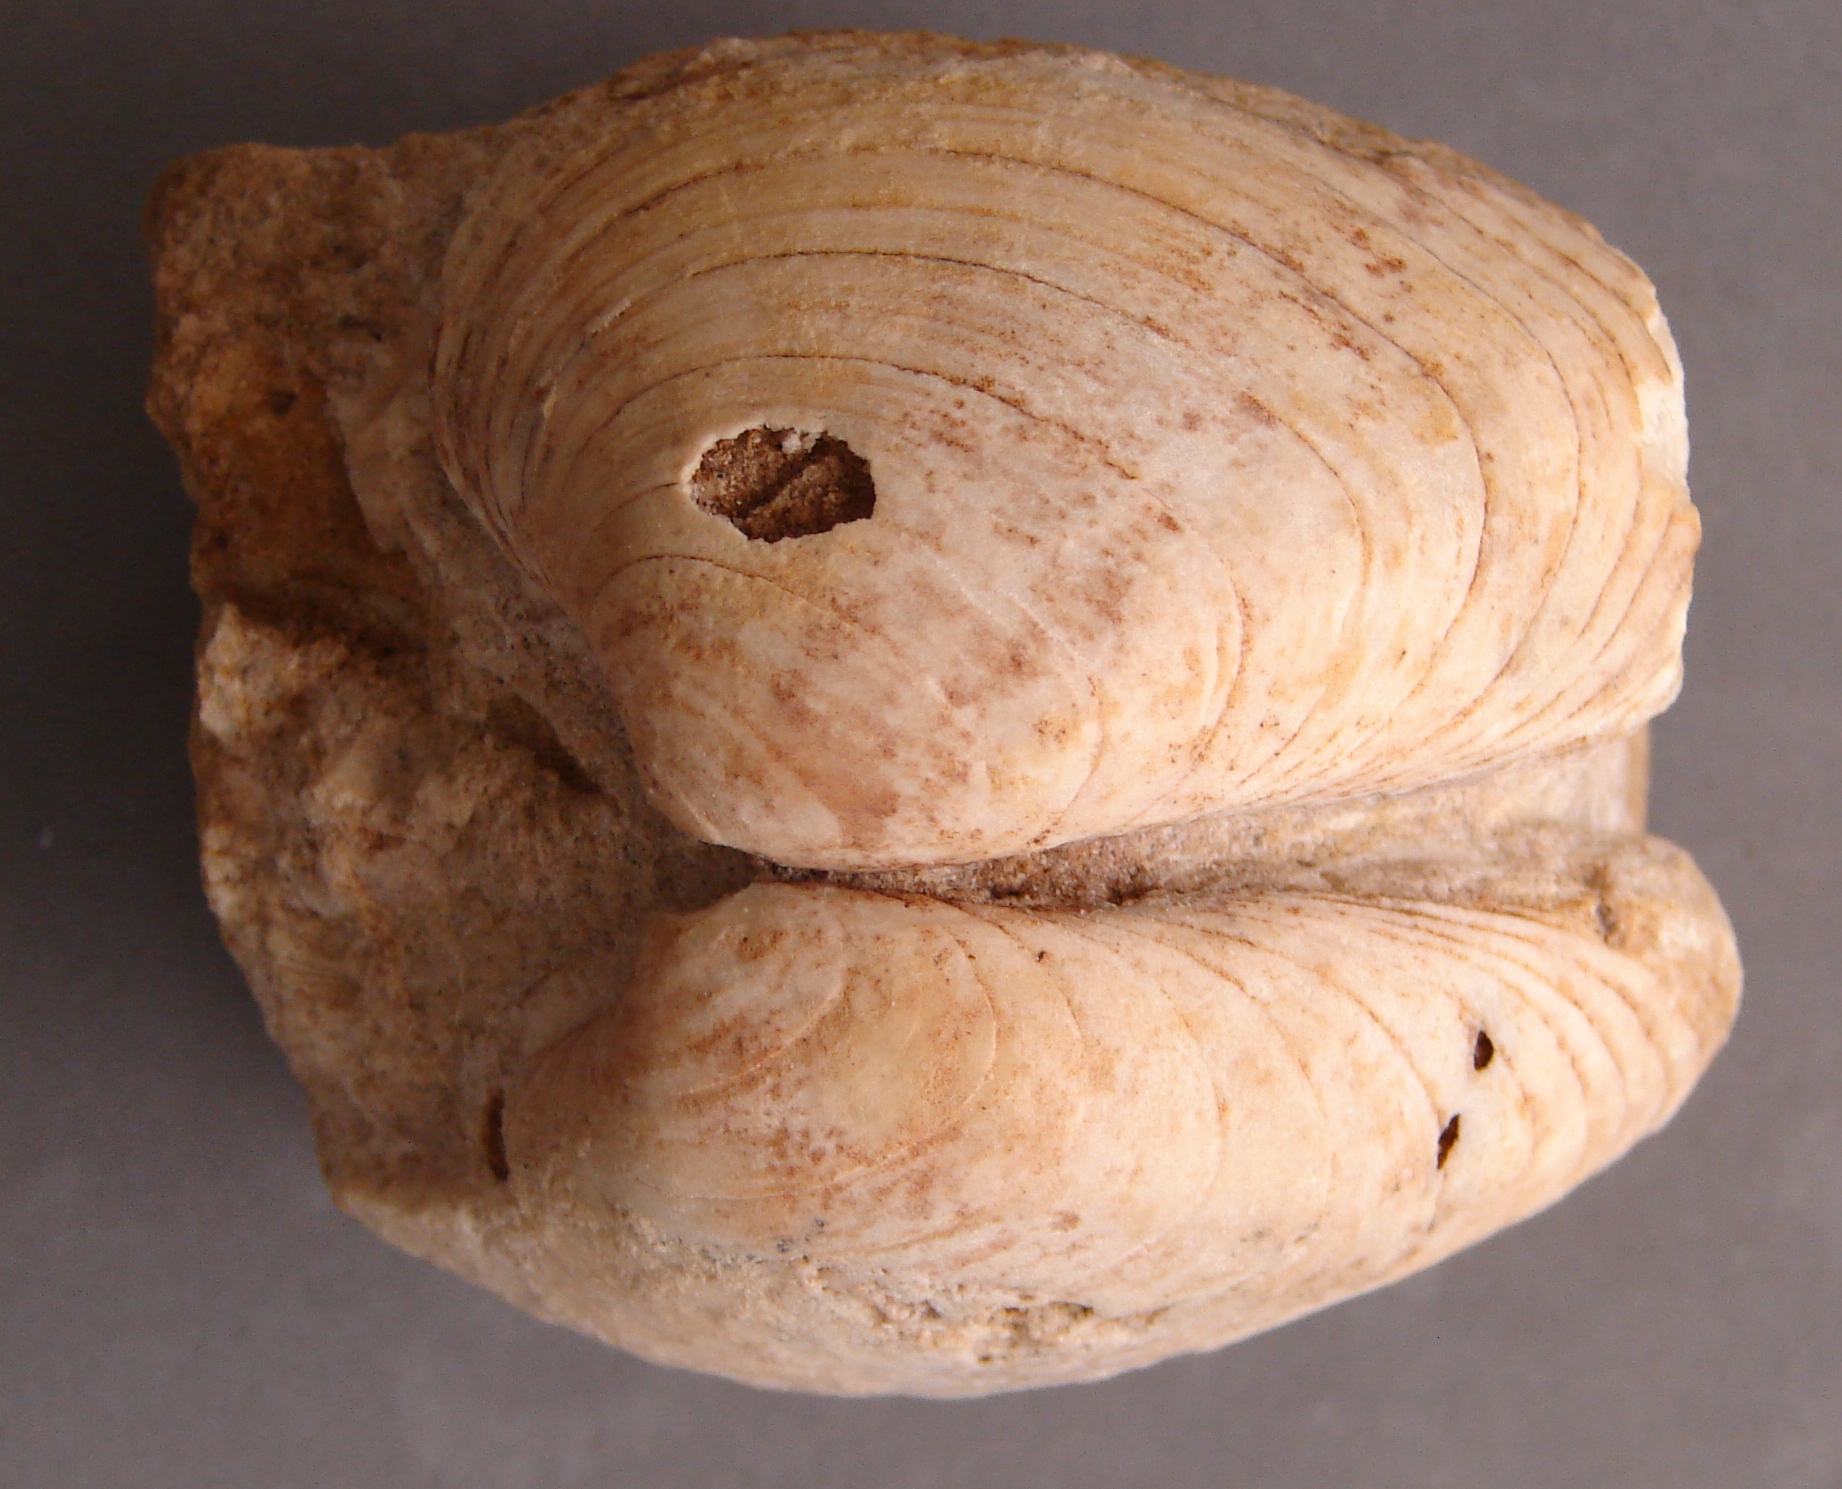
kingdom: Animalia
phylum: Mollusca
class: Bivalvia
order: Carditida
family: Cardiniidae
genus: Cardinia
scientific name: Cardinia
